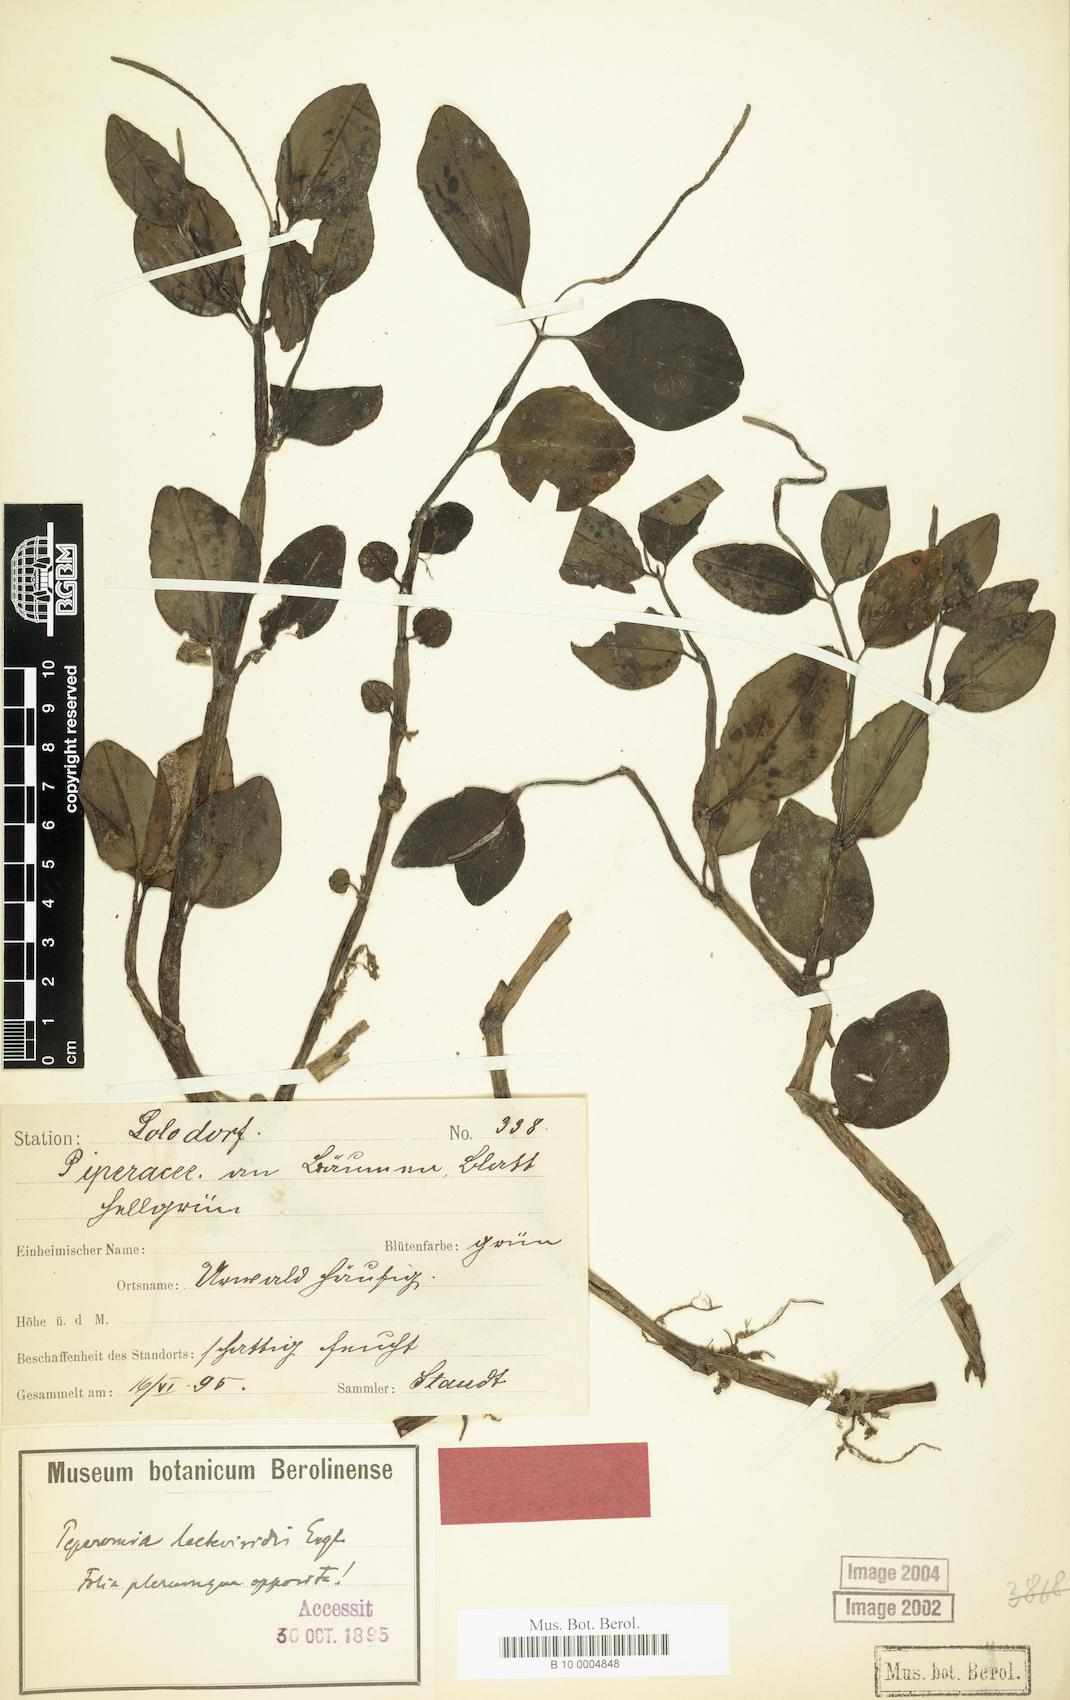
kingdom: Plantae
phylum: Tracheophyta
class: Magnoliopsida
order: Piperales
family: Piperaceae
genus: Peperomia
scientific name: Peperomia laeteviridis
